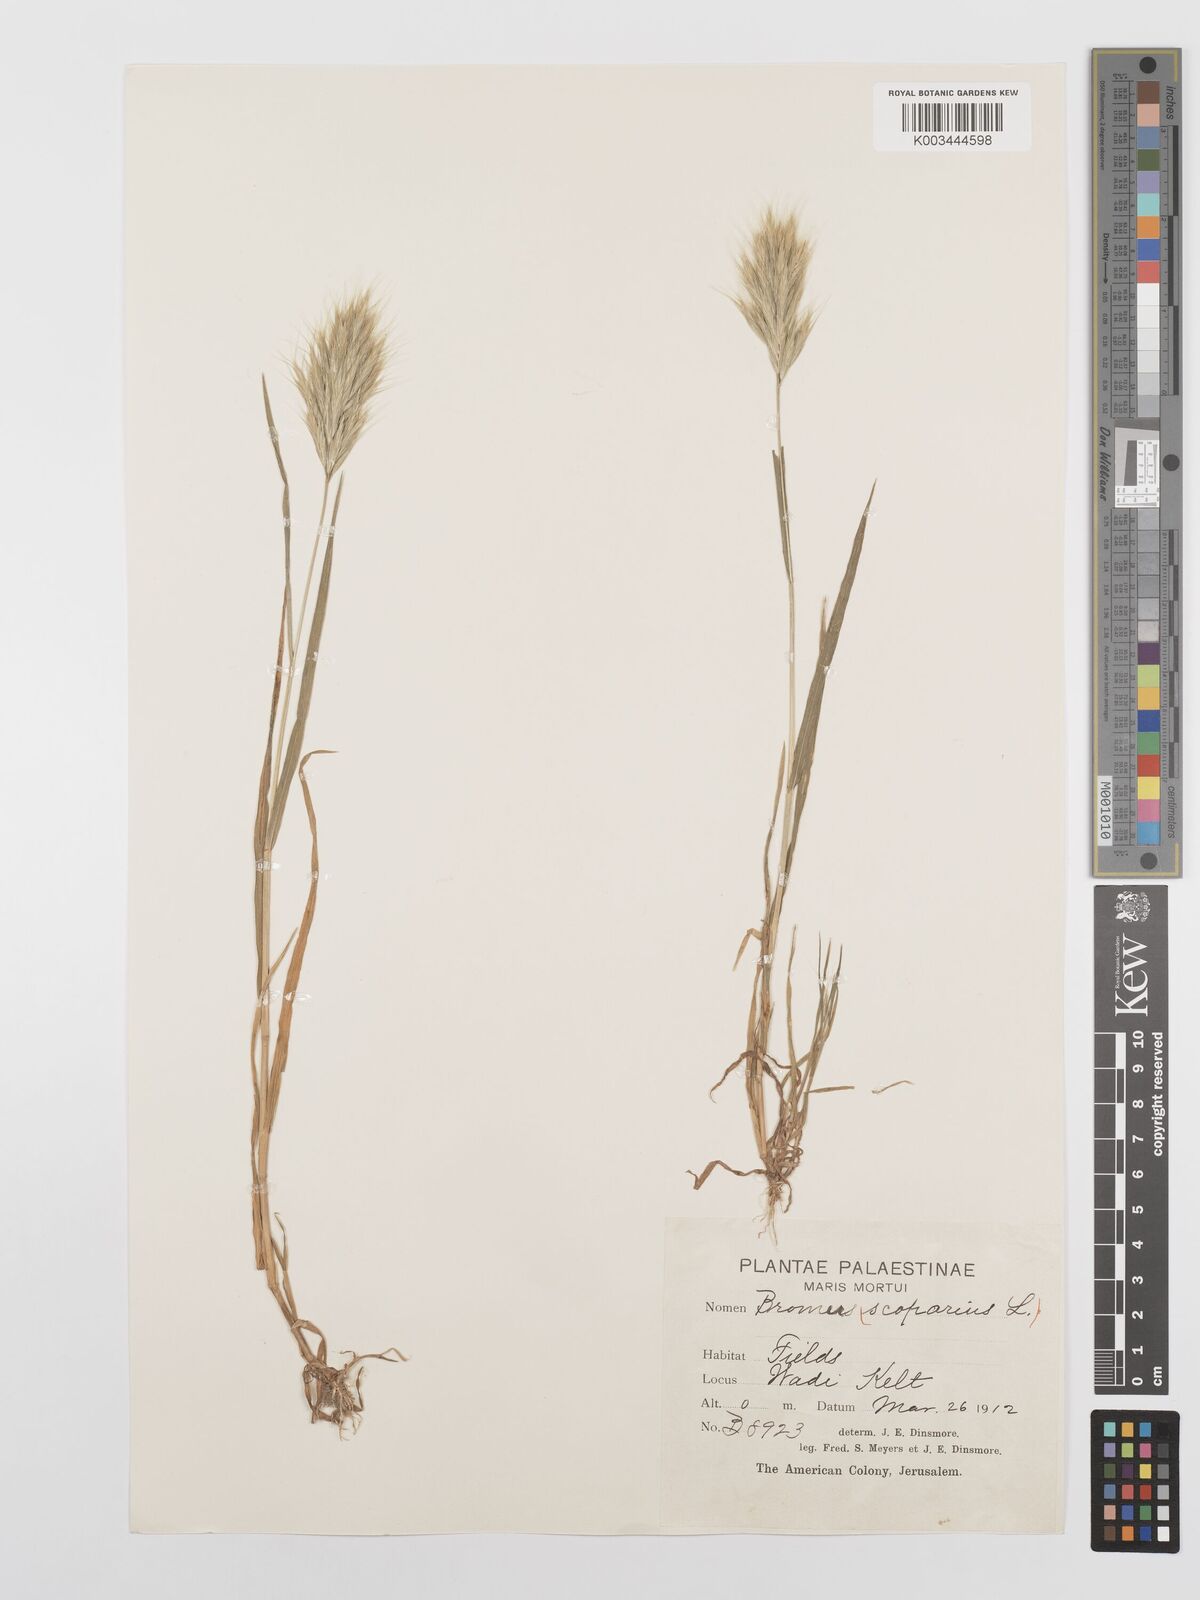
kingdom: Plantae
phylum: Tracheophyta
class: Liliopsida
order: Poales
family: Poaceae
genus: Bromus
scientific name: Bromus scoparius
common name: Broom brome
